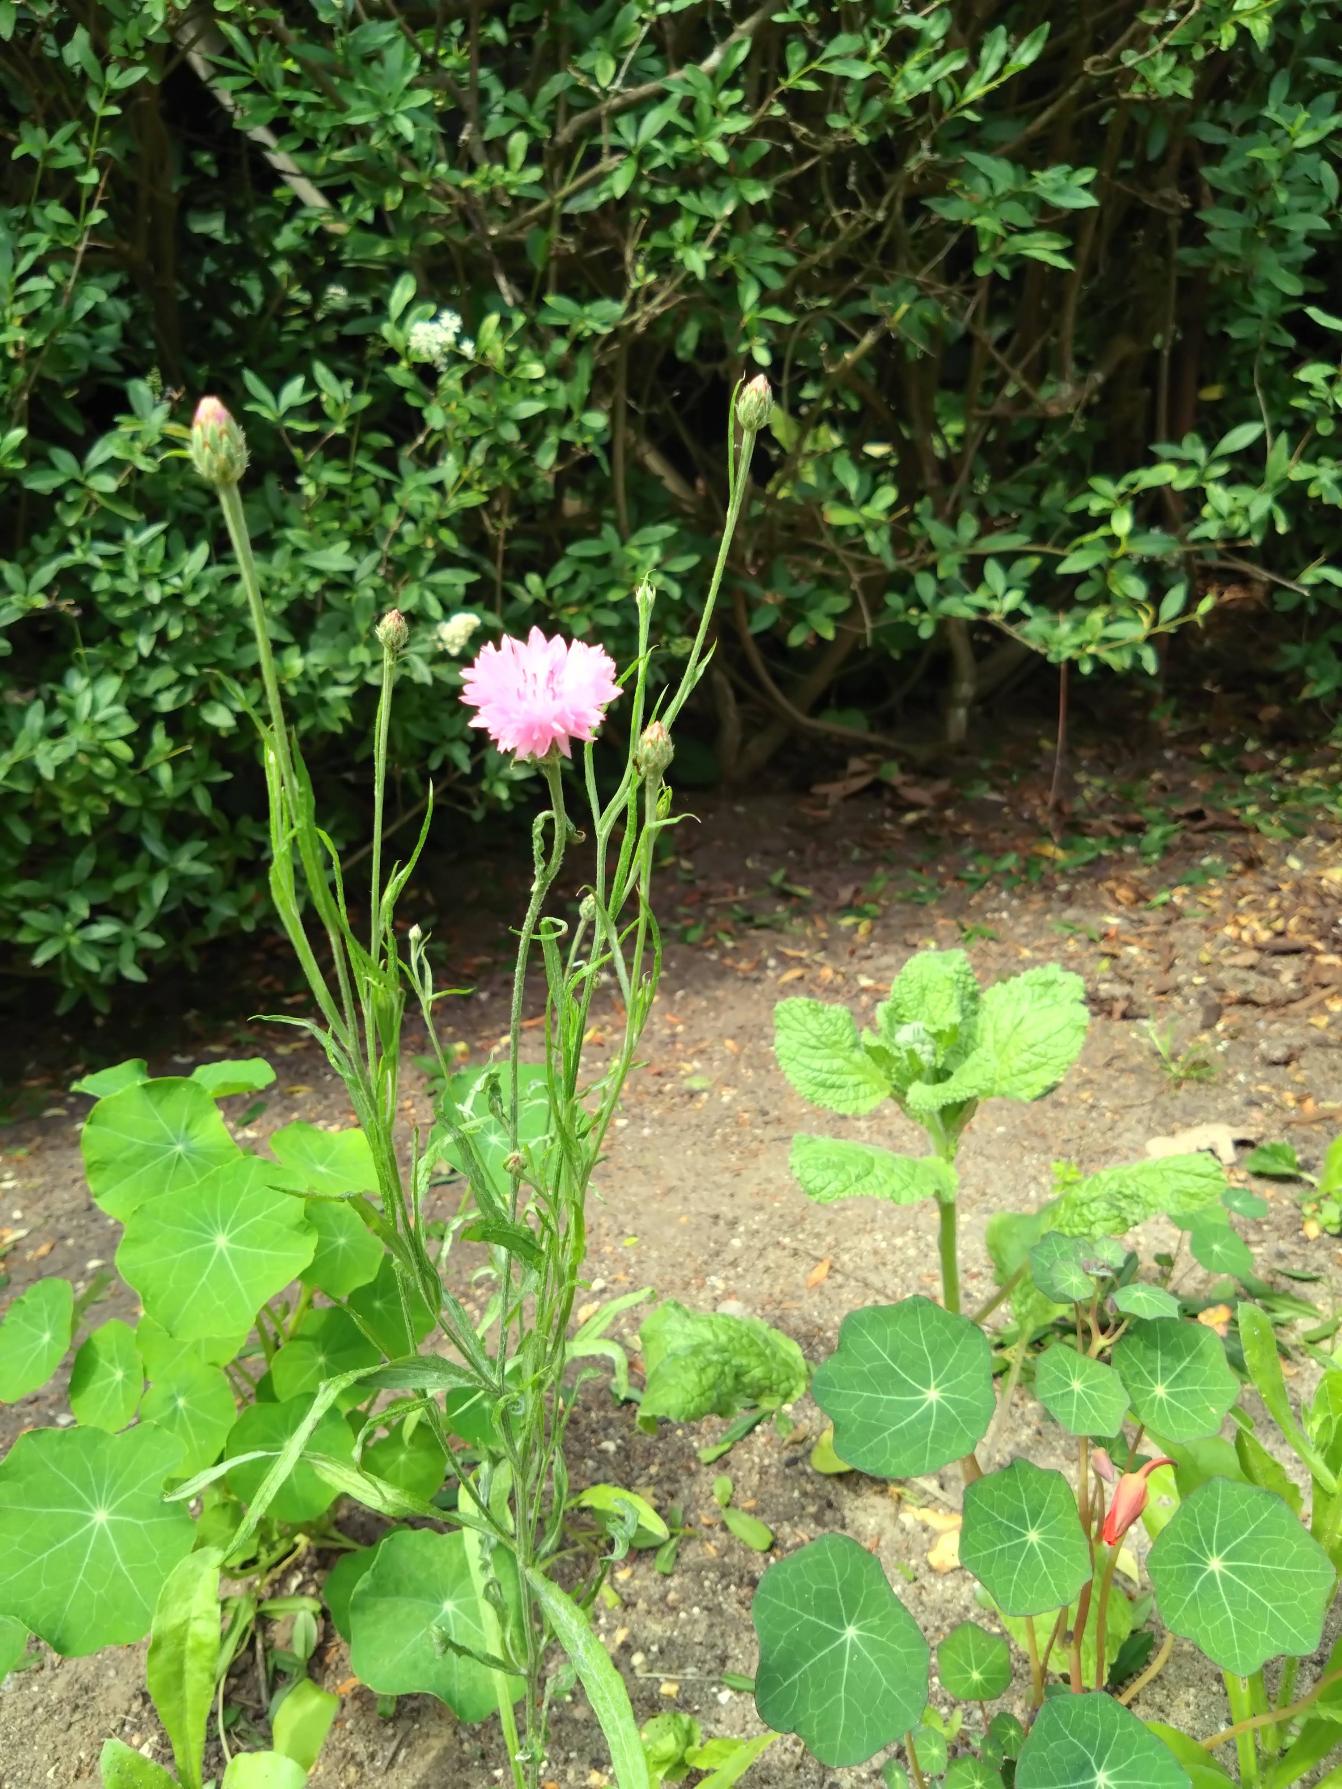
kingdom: Plantae
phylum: Tracheophyta
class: Magnoliopsida
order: Asterales
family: Asteraceae
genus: Centaurea
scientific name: Centaurea cyanus
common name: Kornblomst
